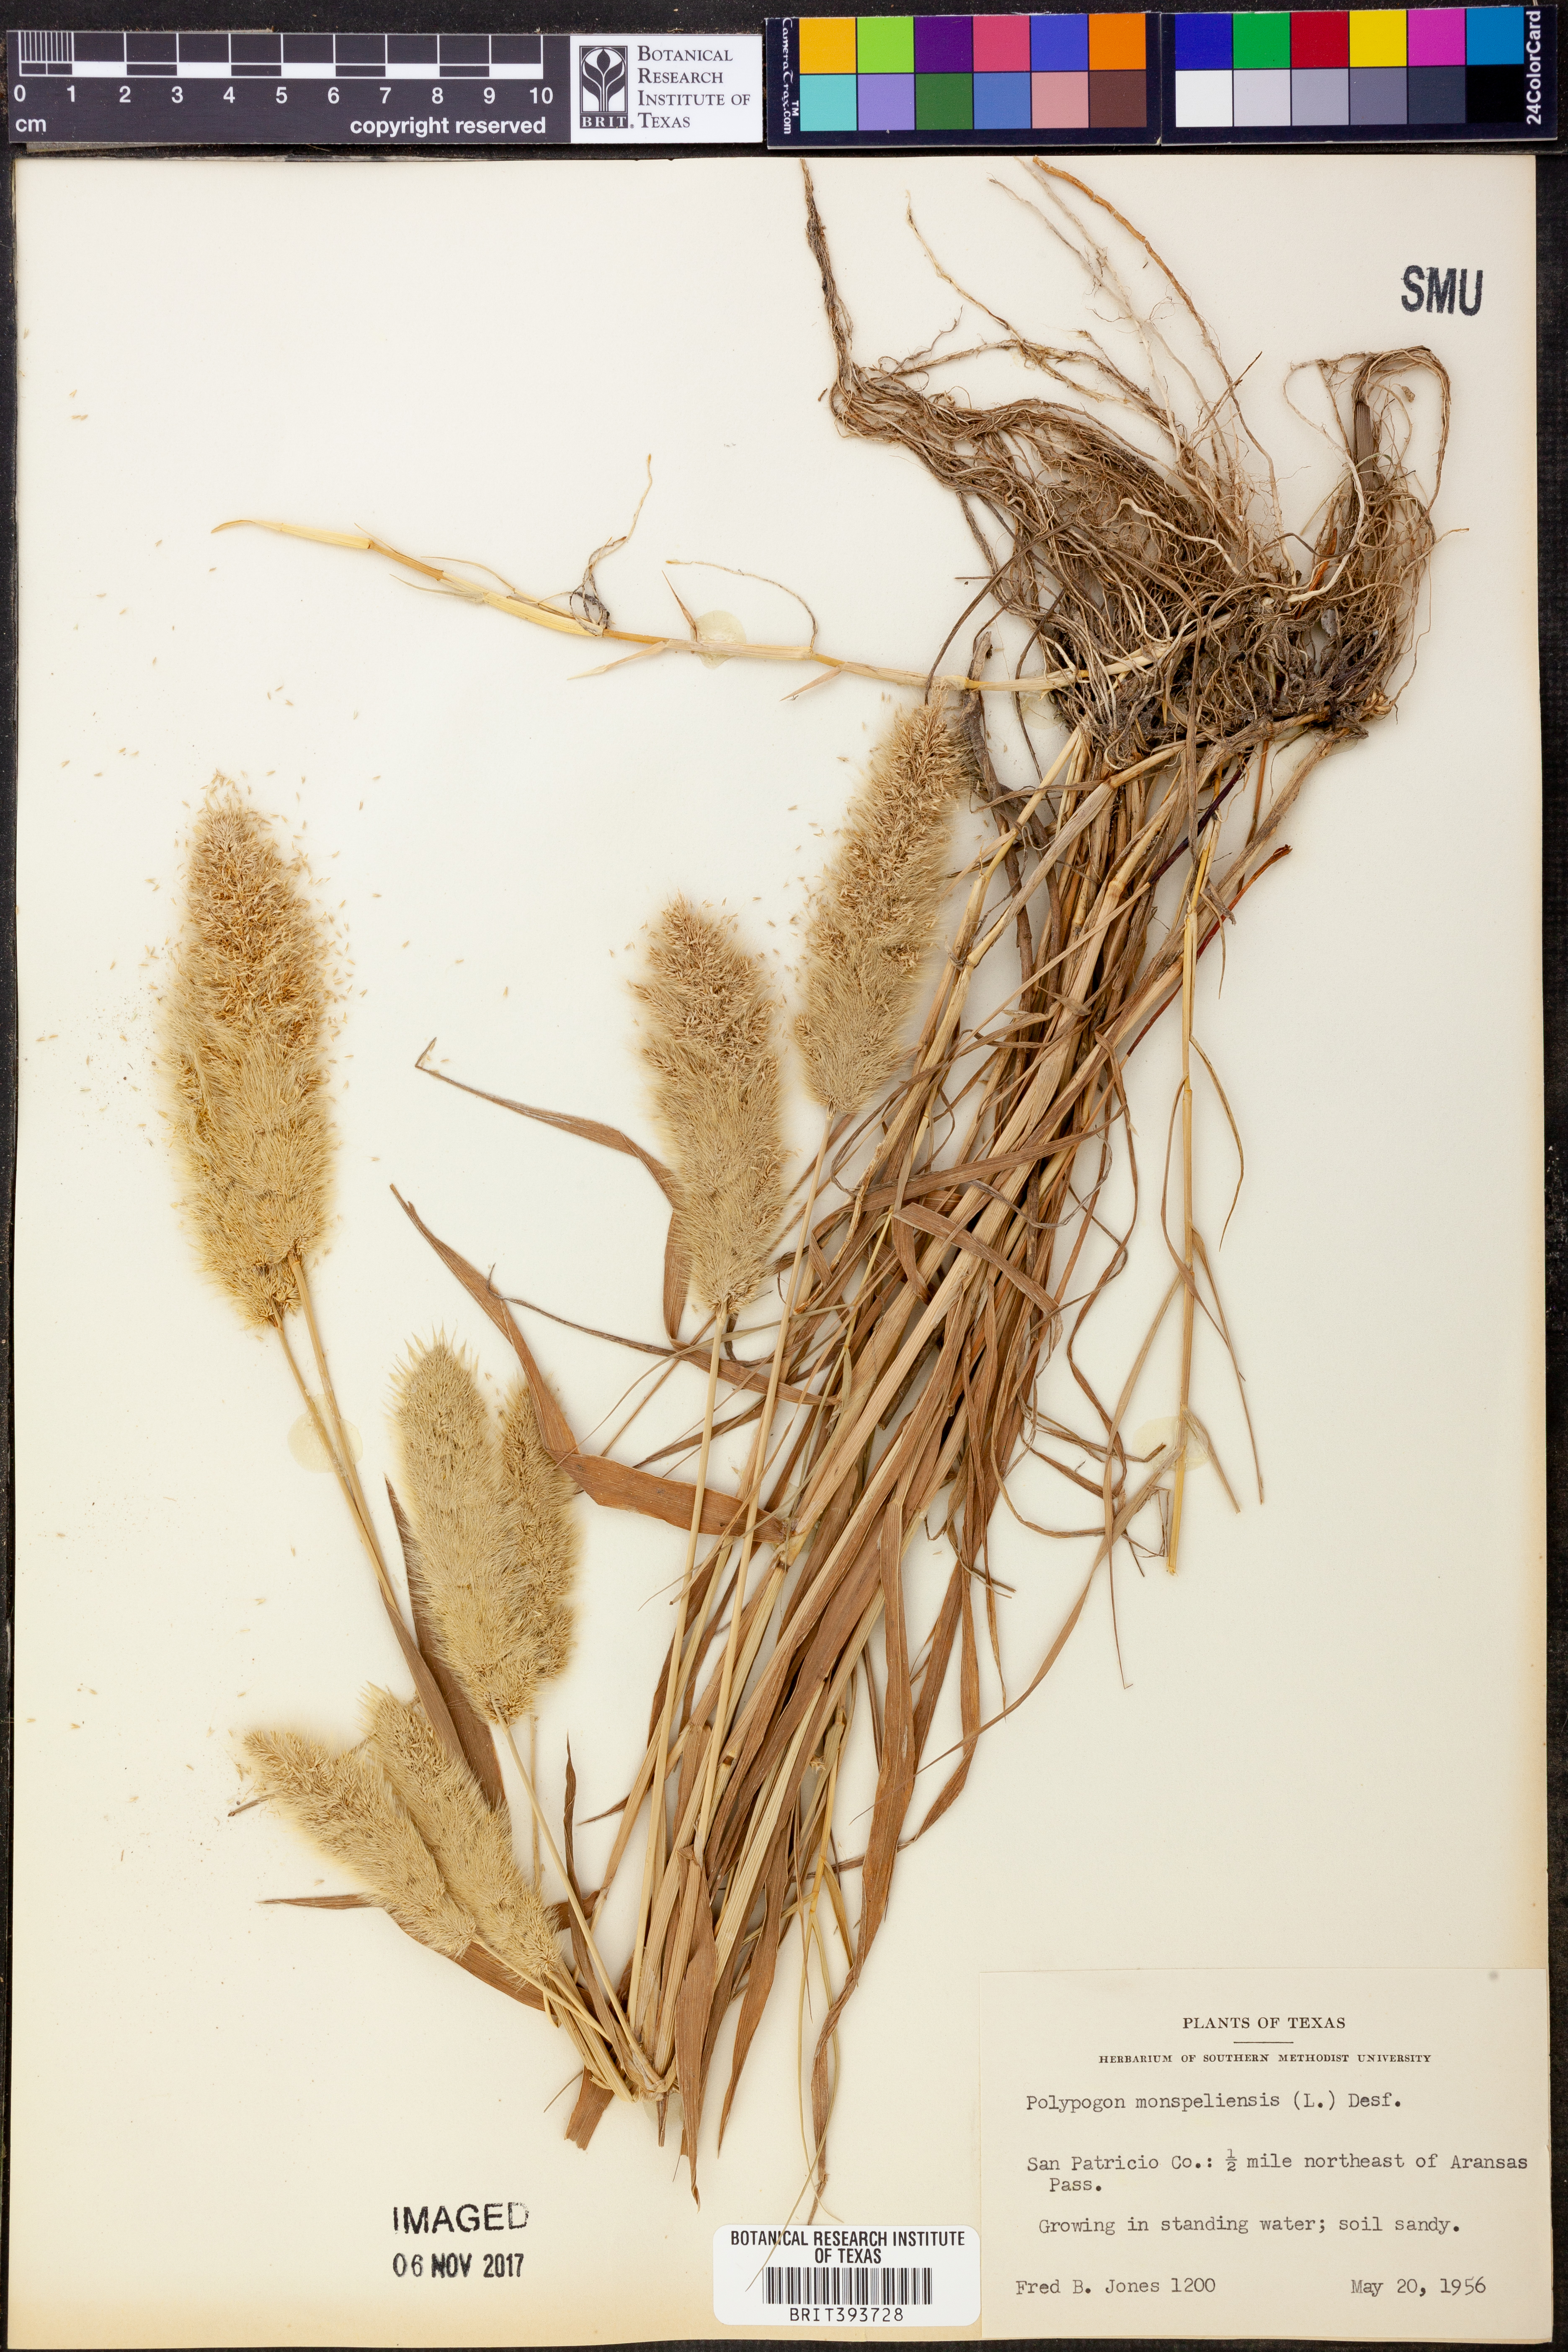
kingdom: Plantae
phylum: Tracheophyta
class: Liliopsida
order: Poales
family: Poaceae
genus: Polypogon
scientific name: Polypogon monspeliensis
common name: Annual rabbitsfoot grass
